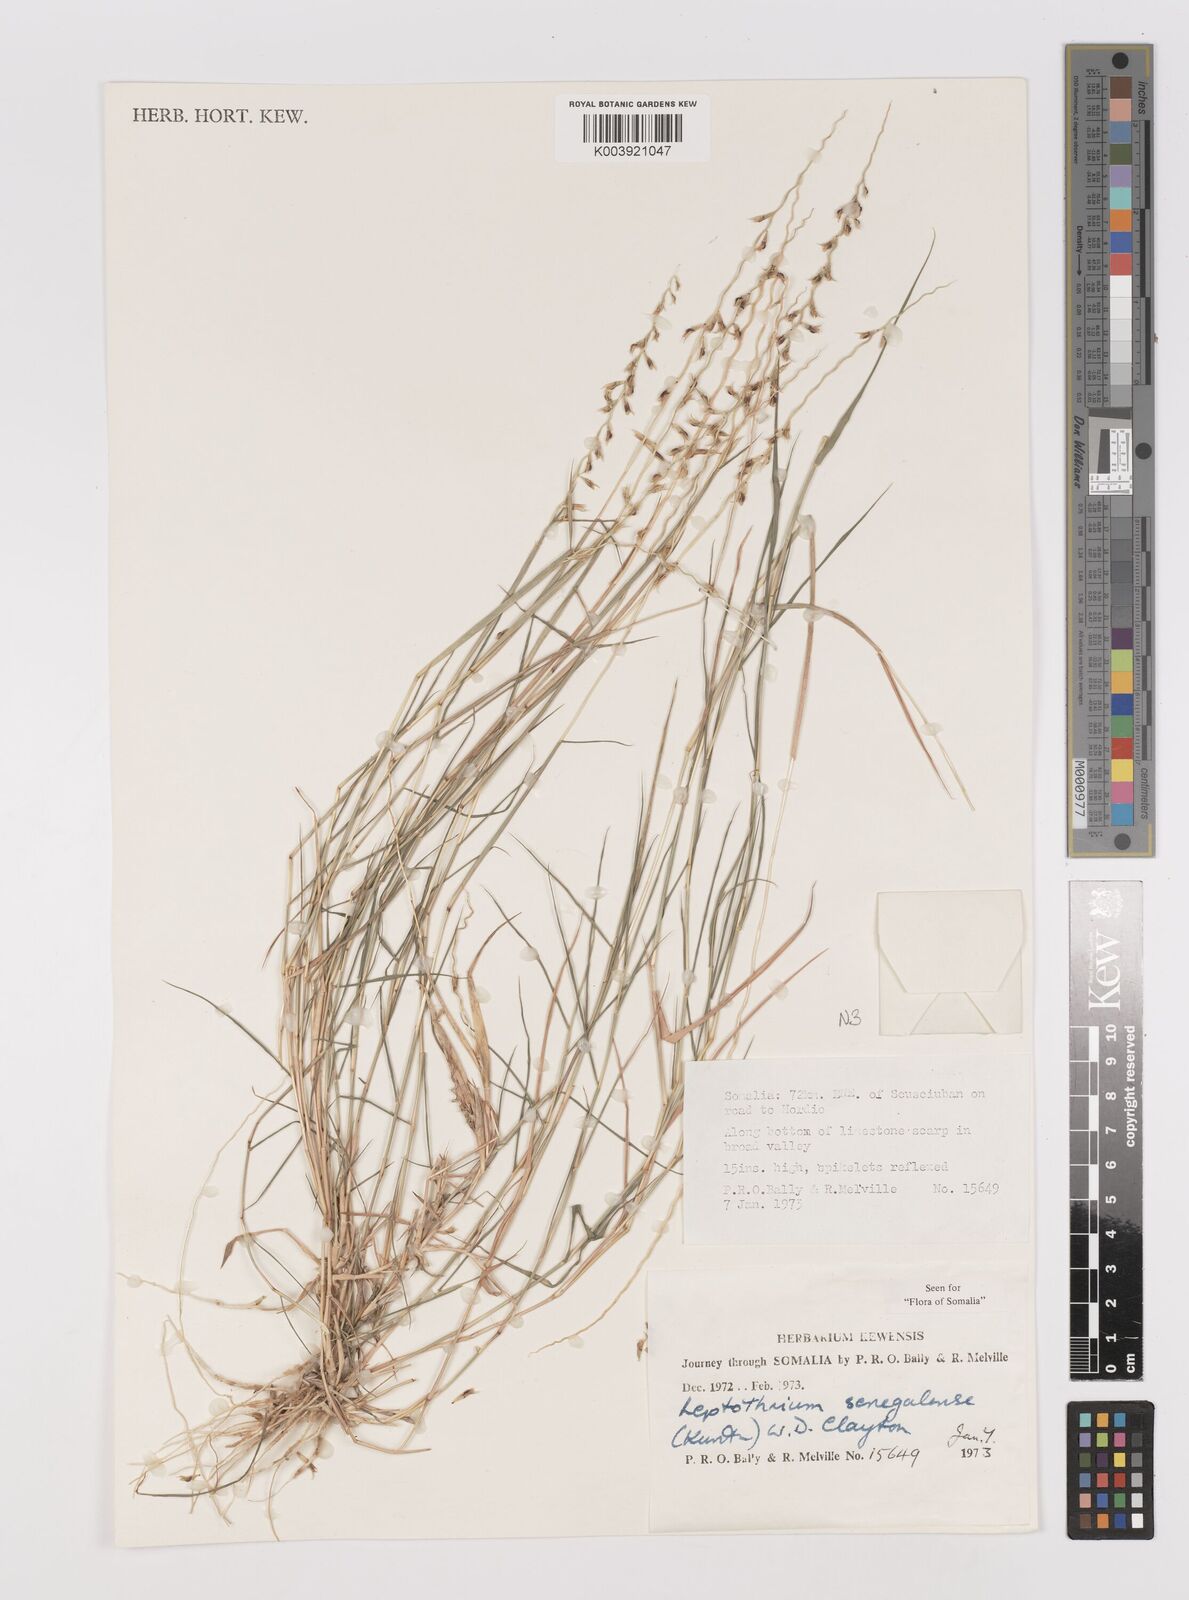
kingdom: Plantae
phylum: Tracheophyta
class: Liliopsida
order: Poales
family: Poaceae
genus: Leptothrium
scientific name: Leptothrium senegalense
